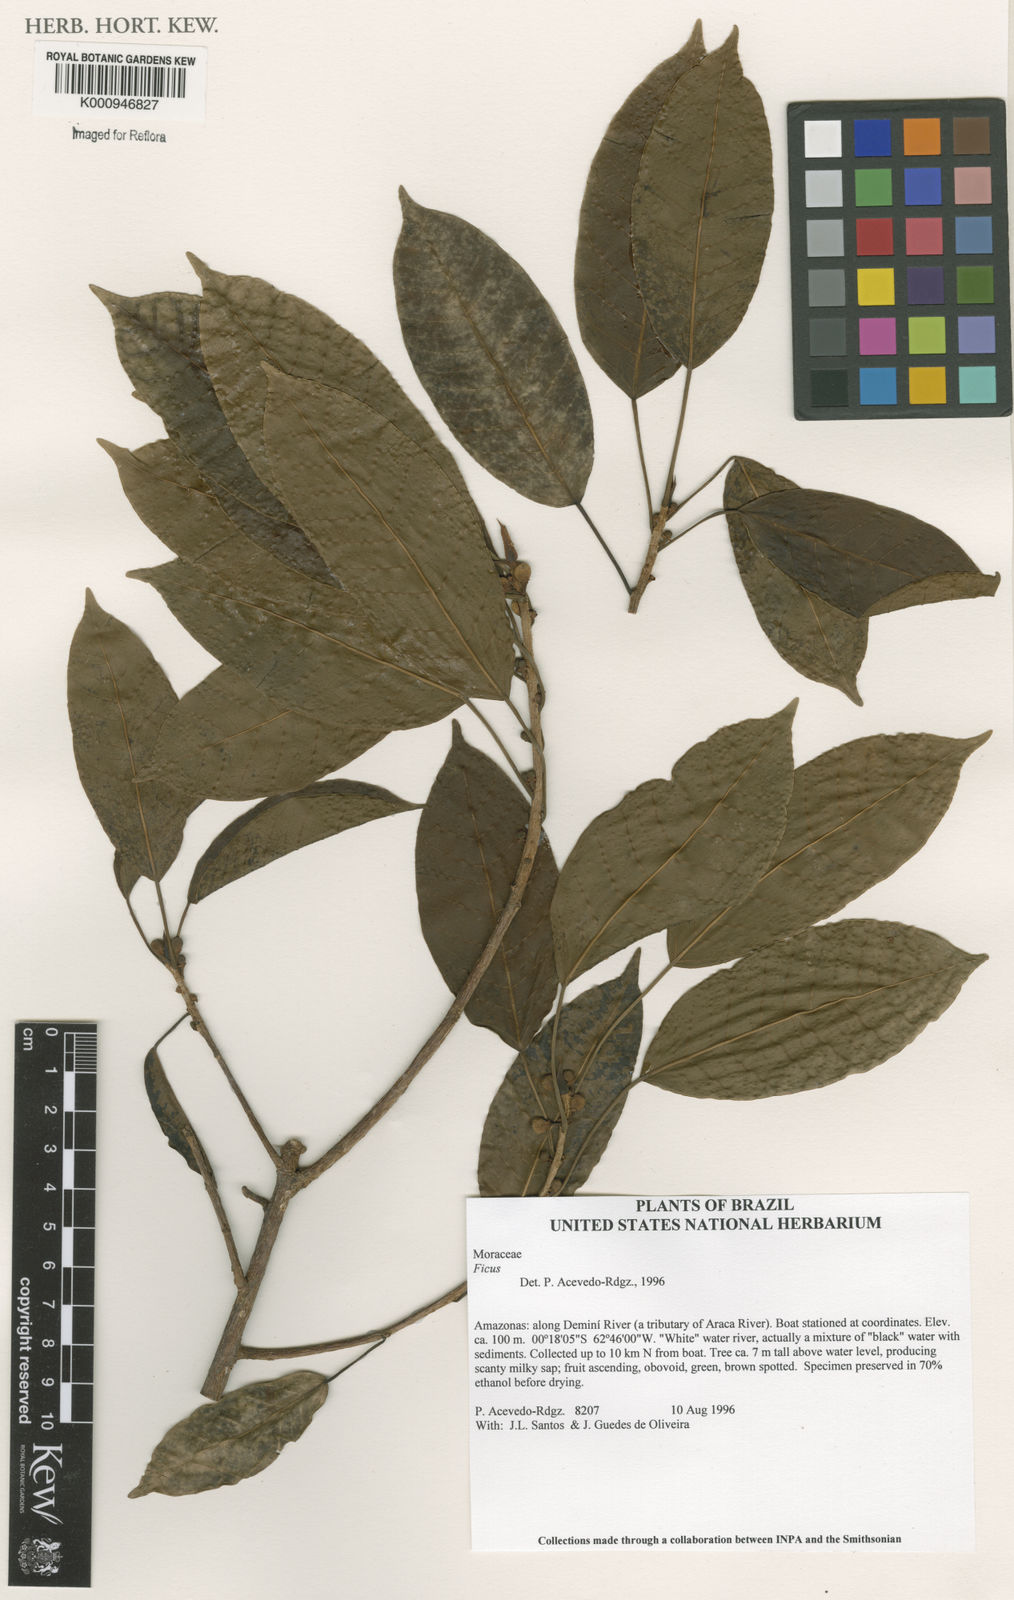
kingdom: Plantae
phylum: Tracheophyta
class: Magnoliopsida
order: Rosales
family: Moraceae
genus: Ficus
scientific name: Ficus
